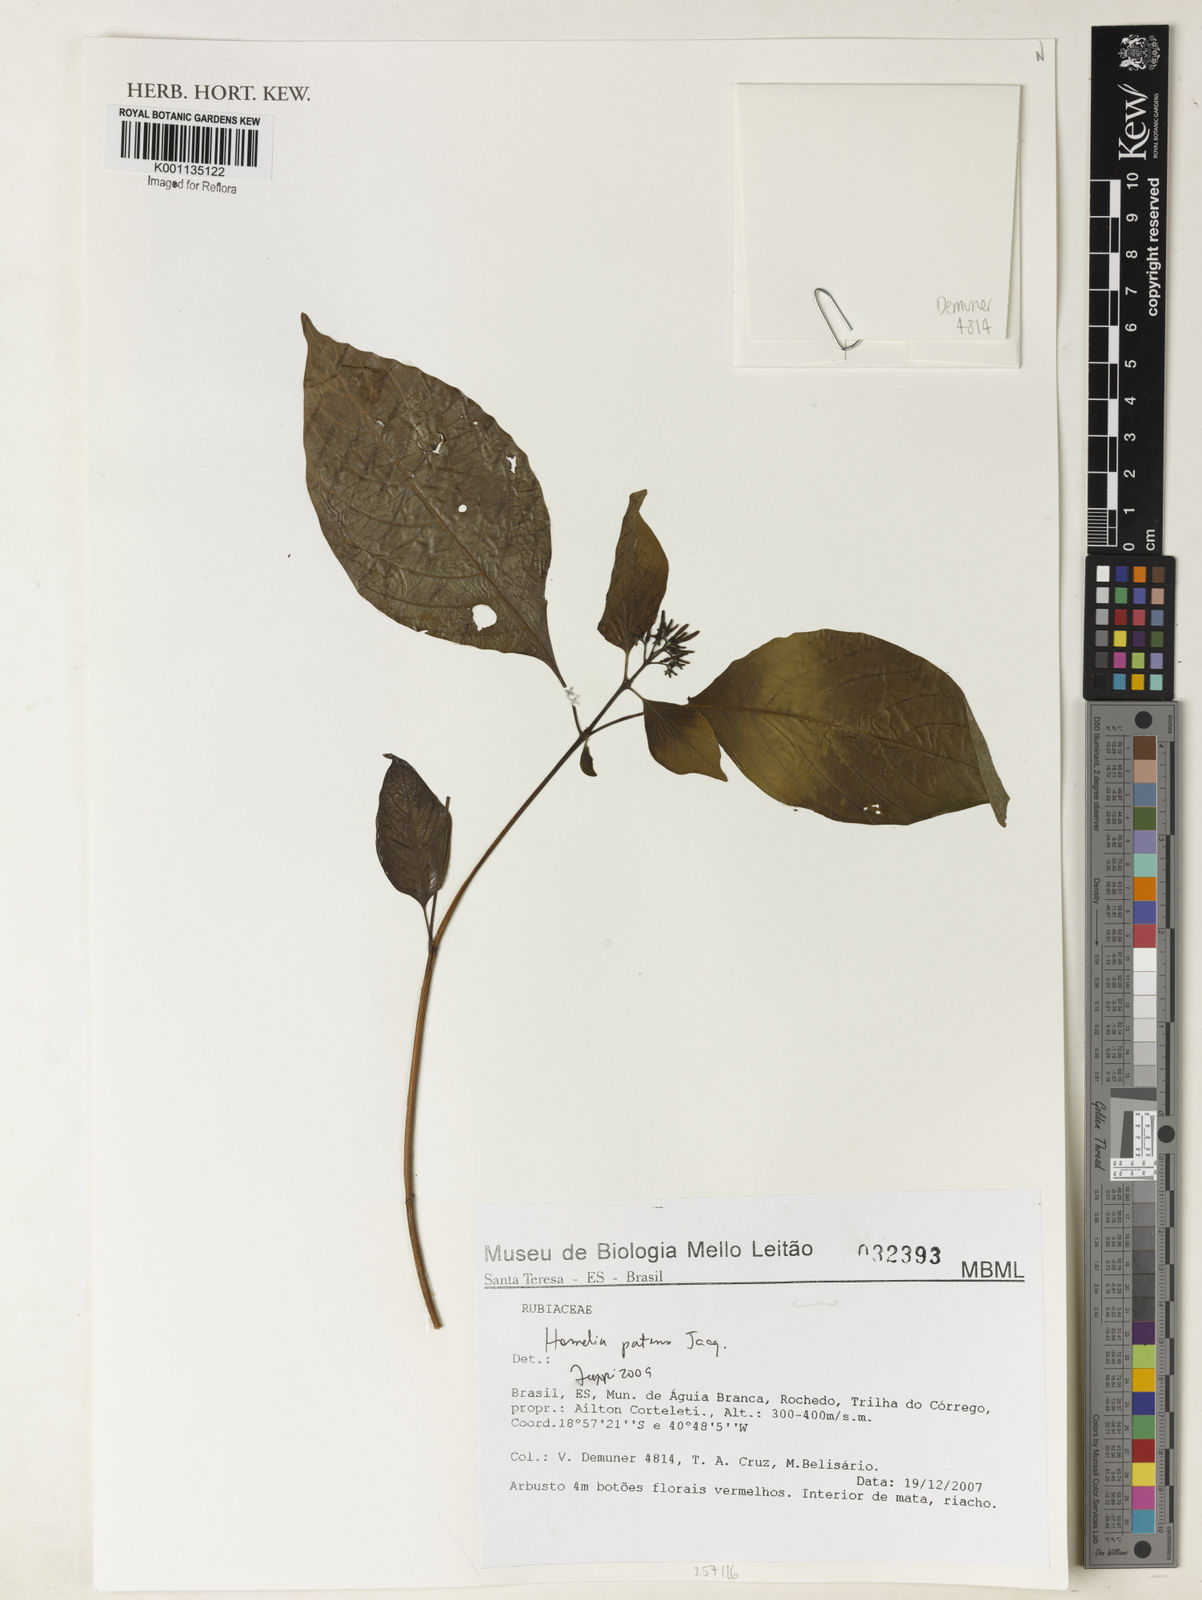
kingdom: Plantae
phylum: Tracheophyta
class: Magnoliopsida
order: Gentianales
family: Rubiaceae
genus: Hamelia
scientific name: Hamelia patens
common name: Redhead
